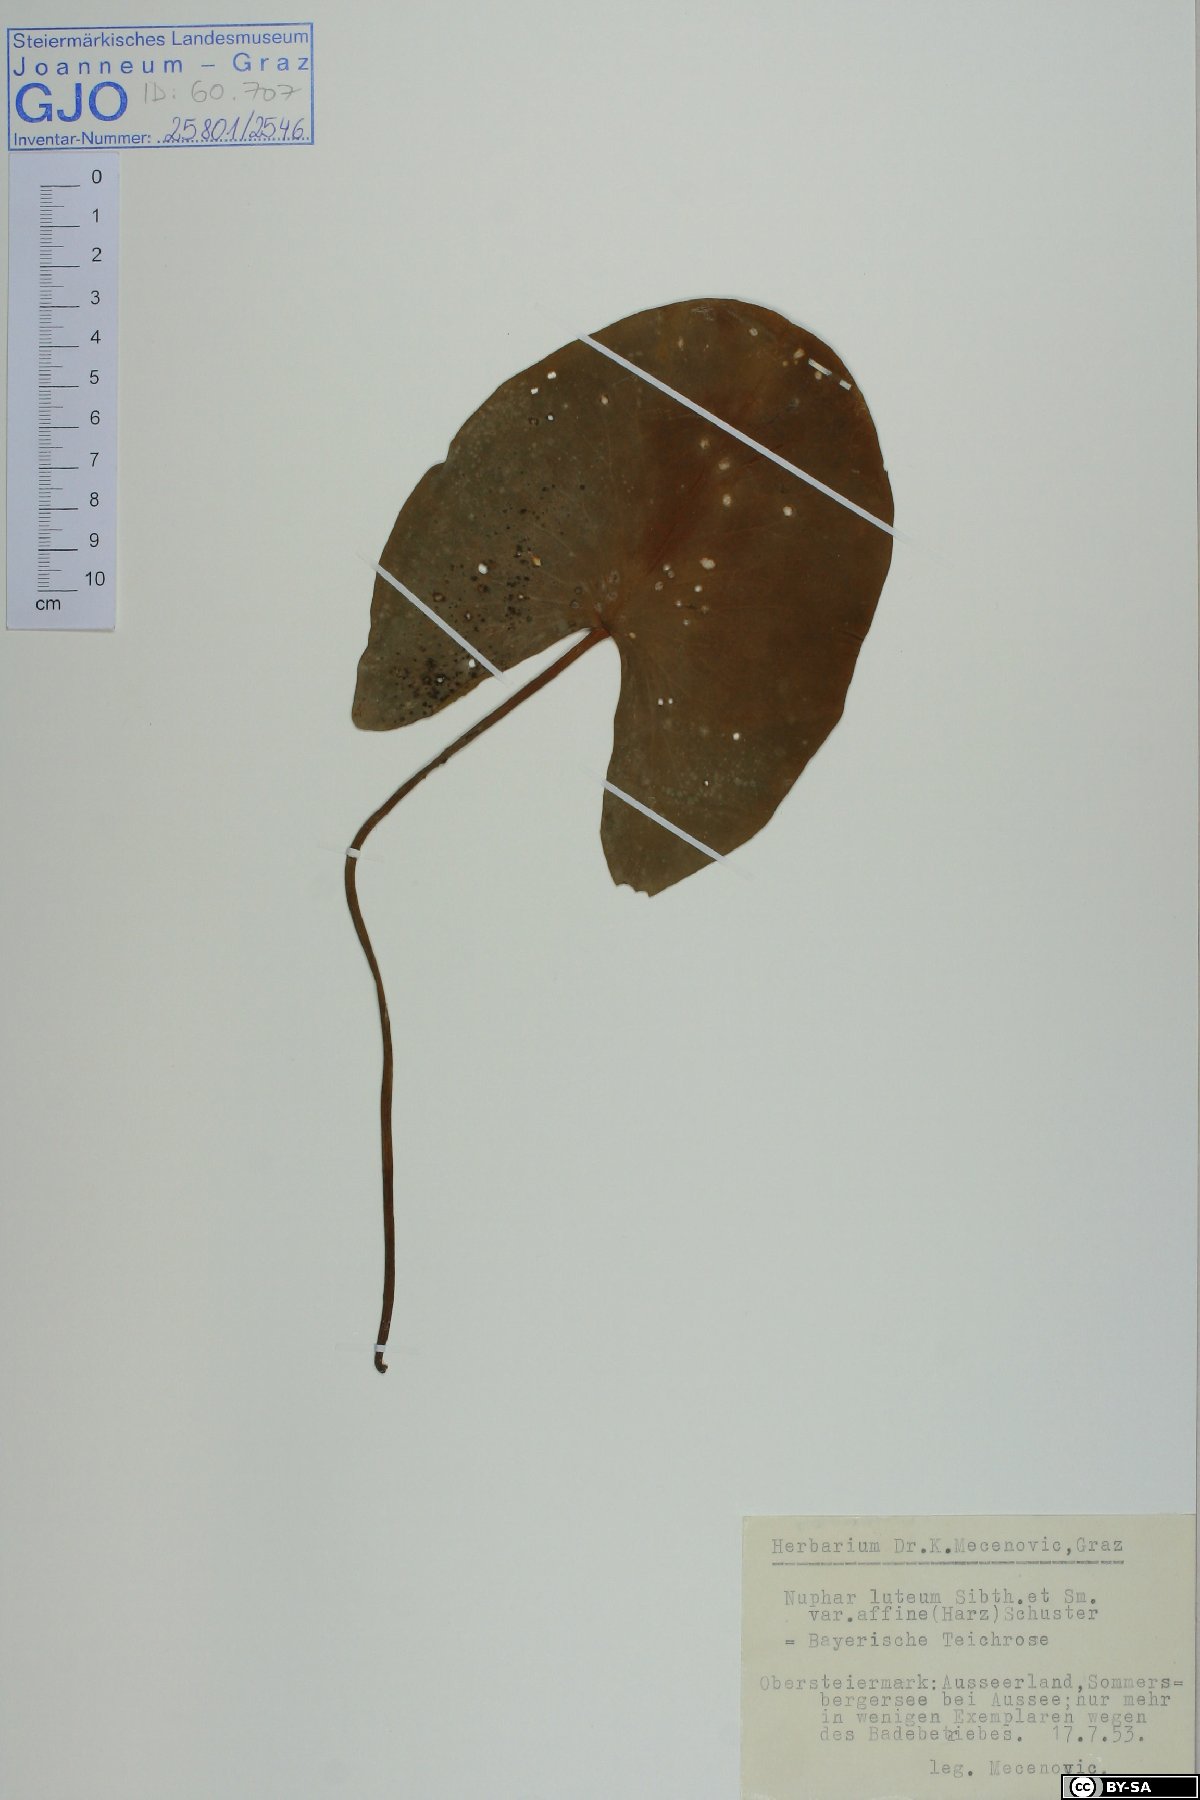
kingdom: Plantae
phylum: Tracheophyta
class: Magnoliopsida
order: Nymphaeales
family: Nymphaeaceae
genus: Nuphar
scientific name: Nuphar lutea
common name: Yellow water-lily
